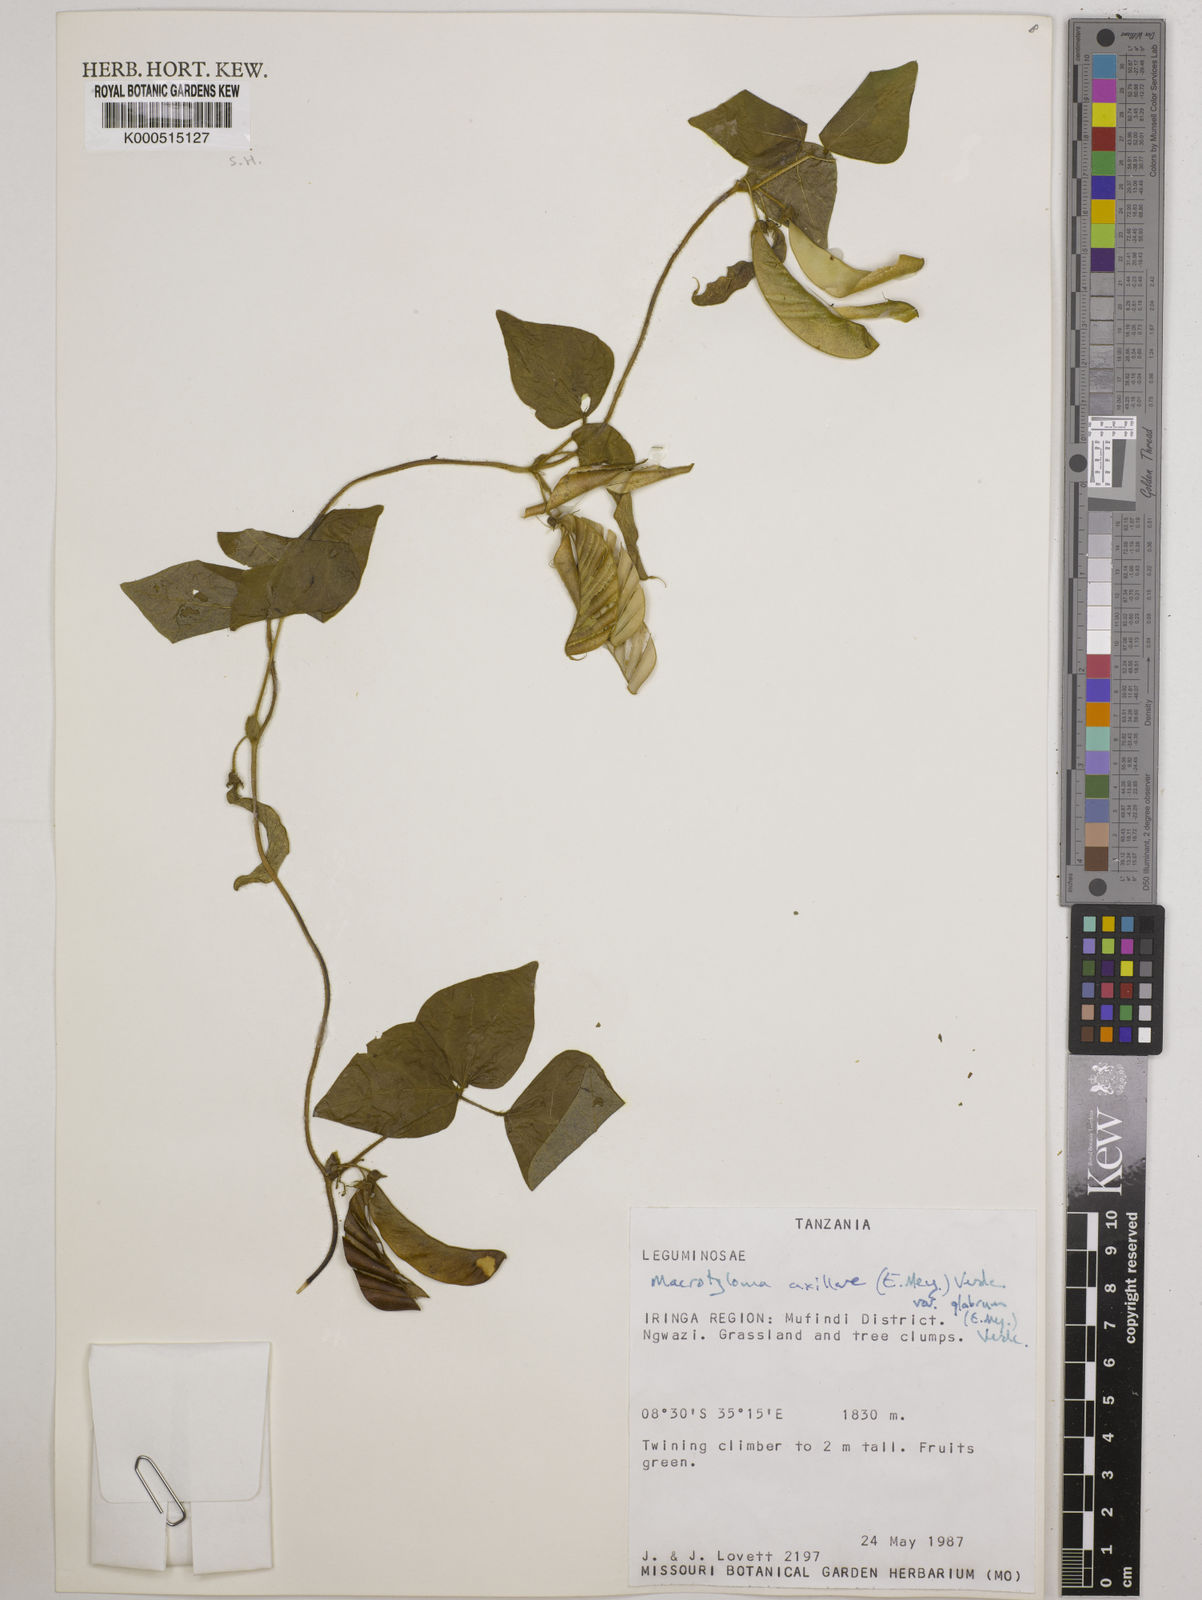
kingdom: Plantae
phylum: Tracheophyta
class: Magnoliopsida
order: Fabales
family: Fabaceae
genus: Macrotyloma
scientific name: Macrotyloma
